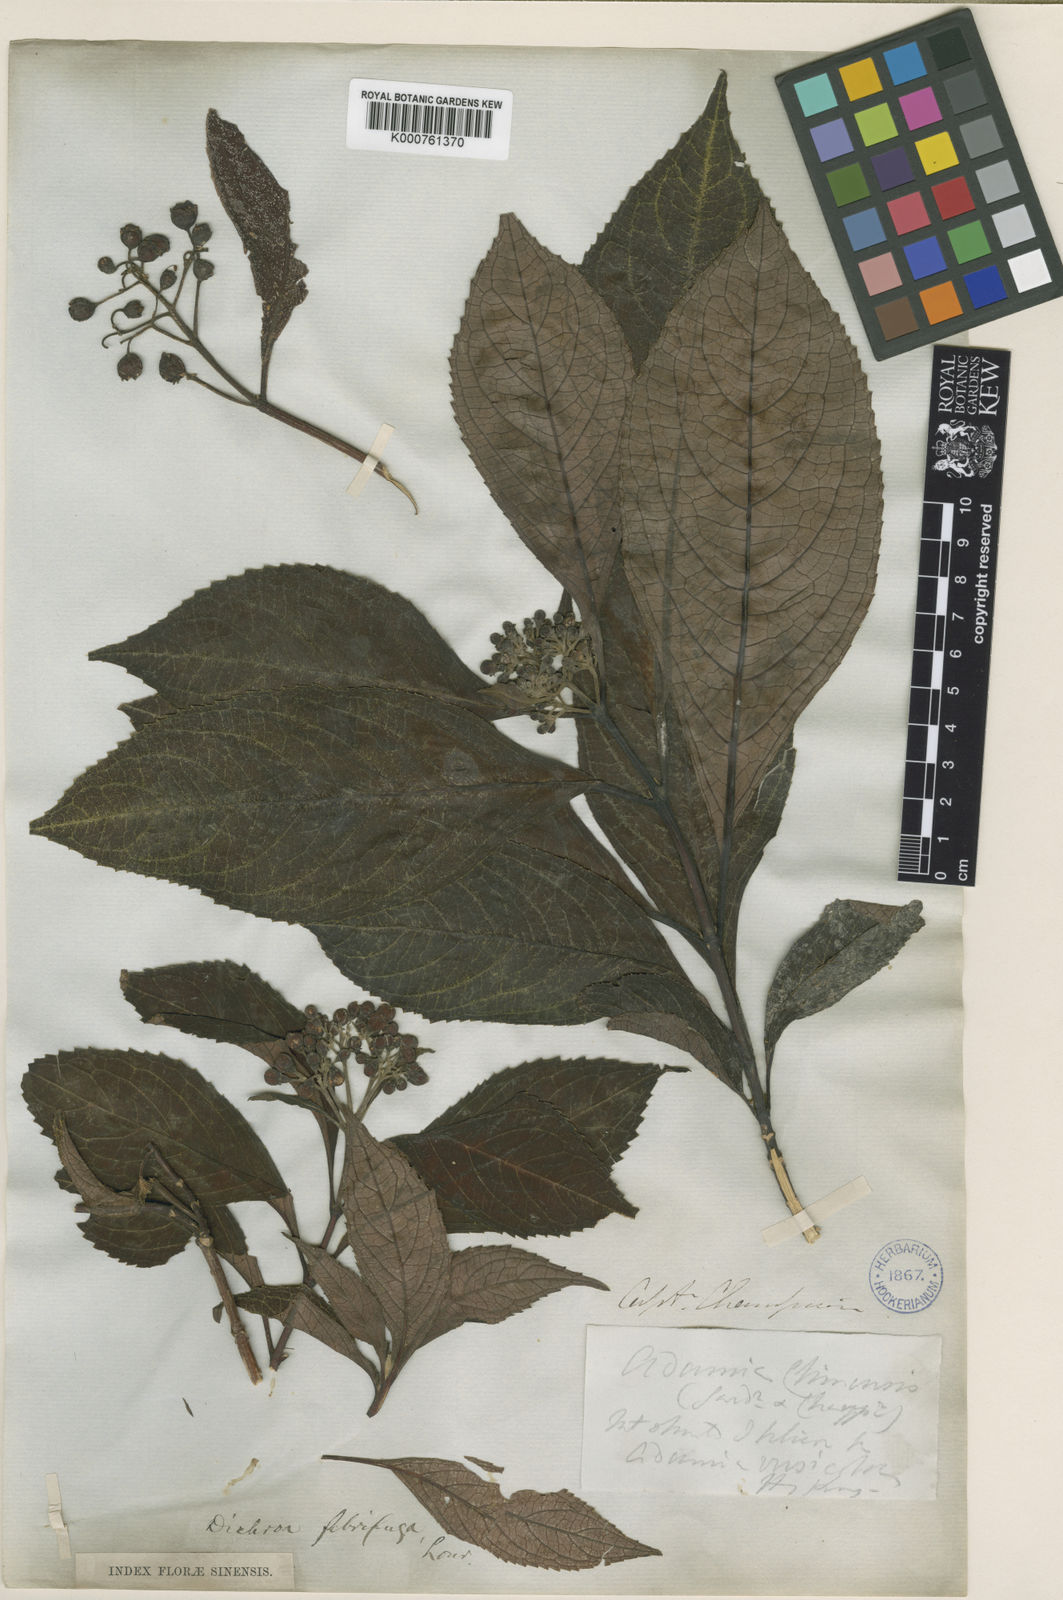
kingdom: Plantae
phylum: Tracheophyta
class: Magnoliopsida
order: Cornales
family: Hydrangeaceae
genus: Hydrangea
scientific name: Hydrangea febrifuga
